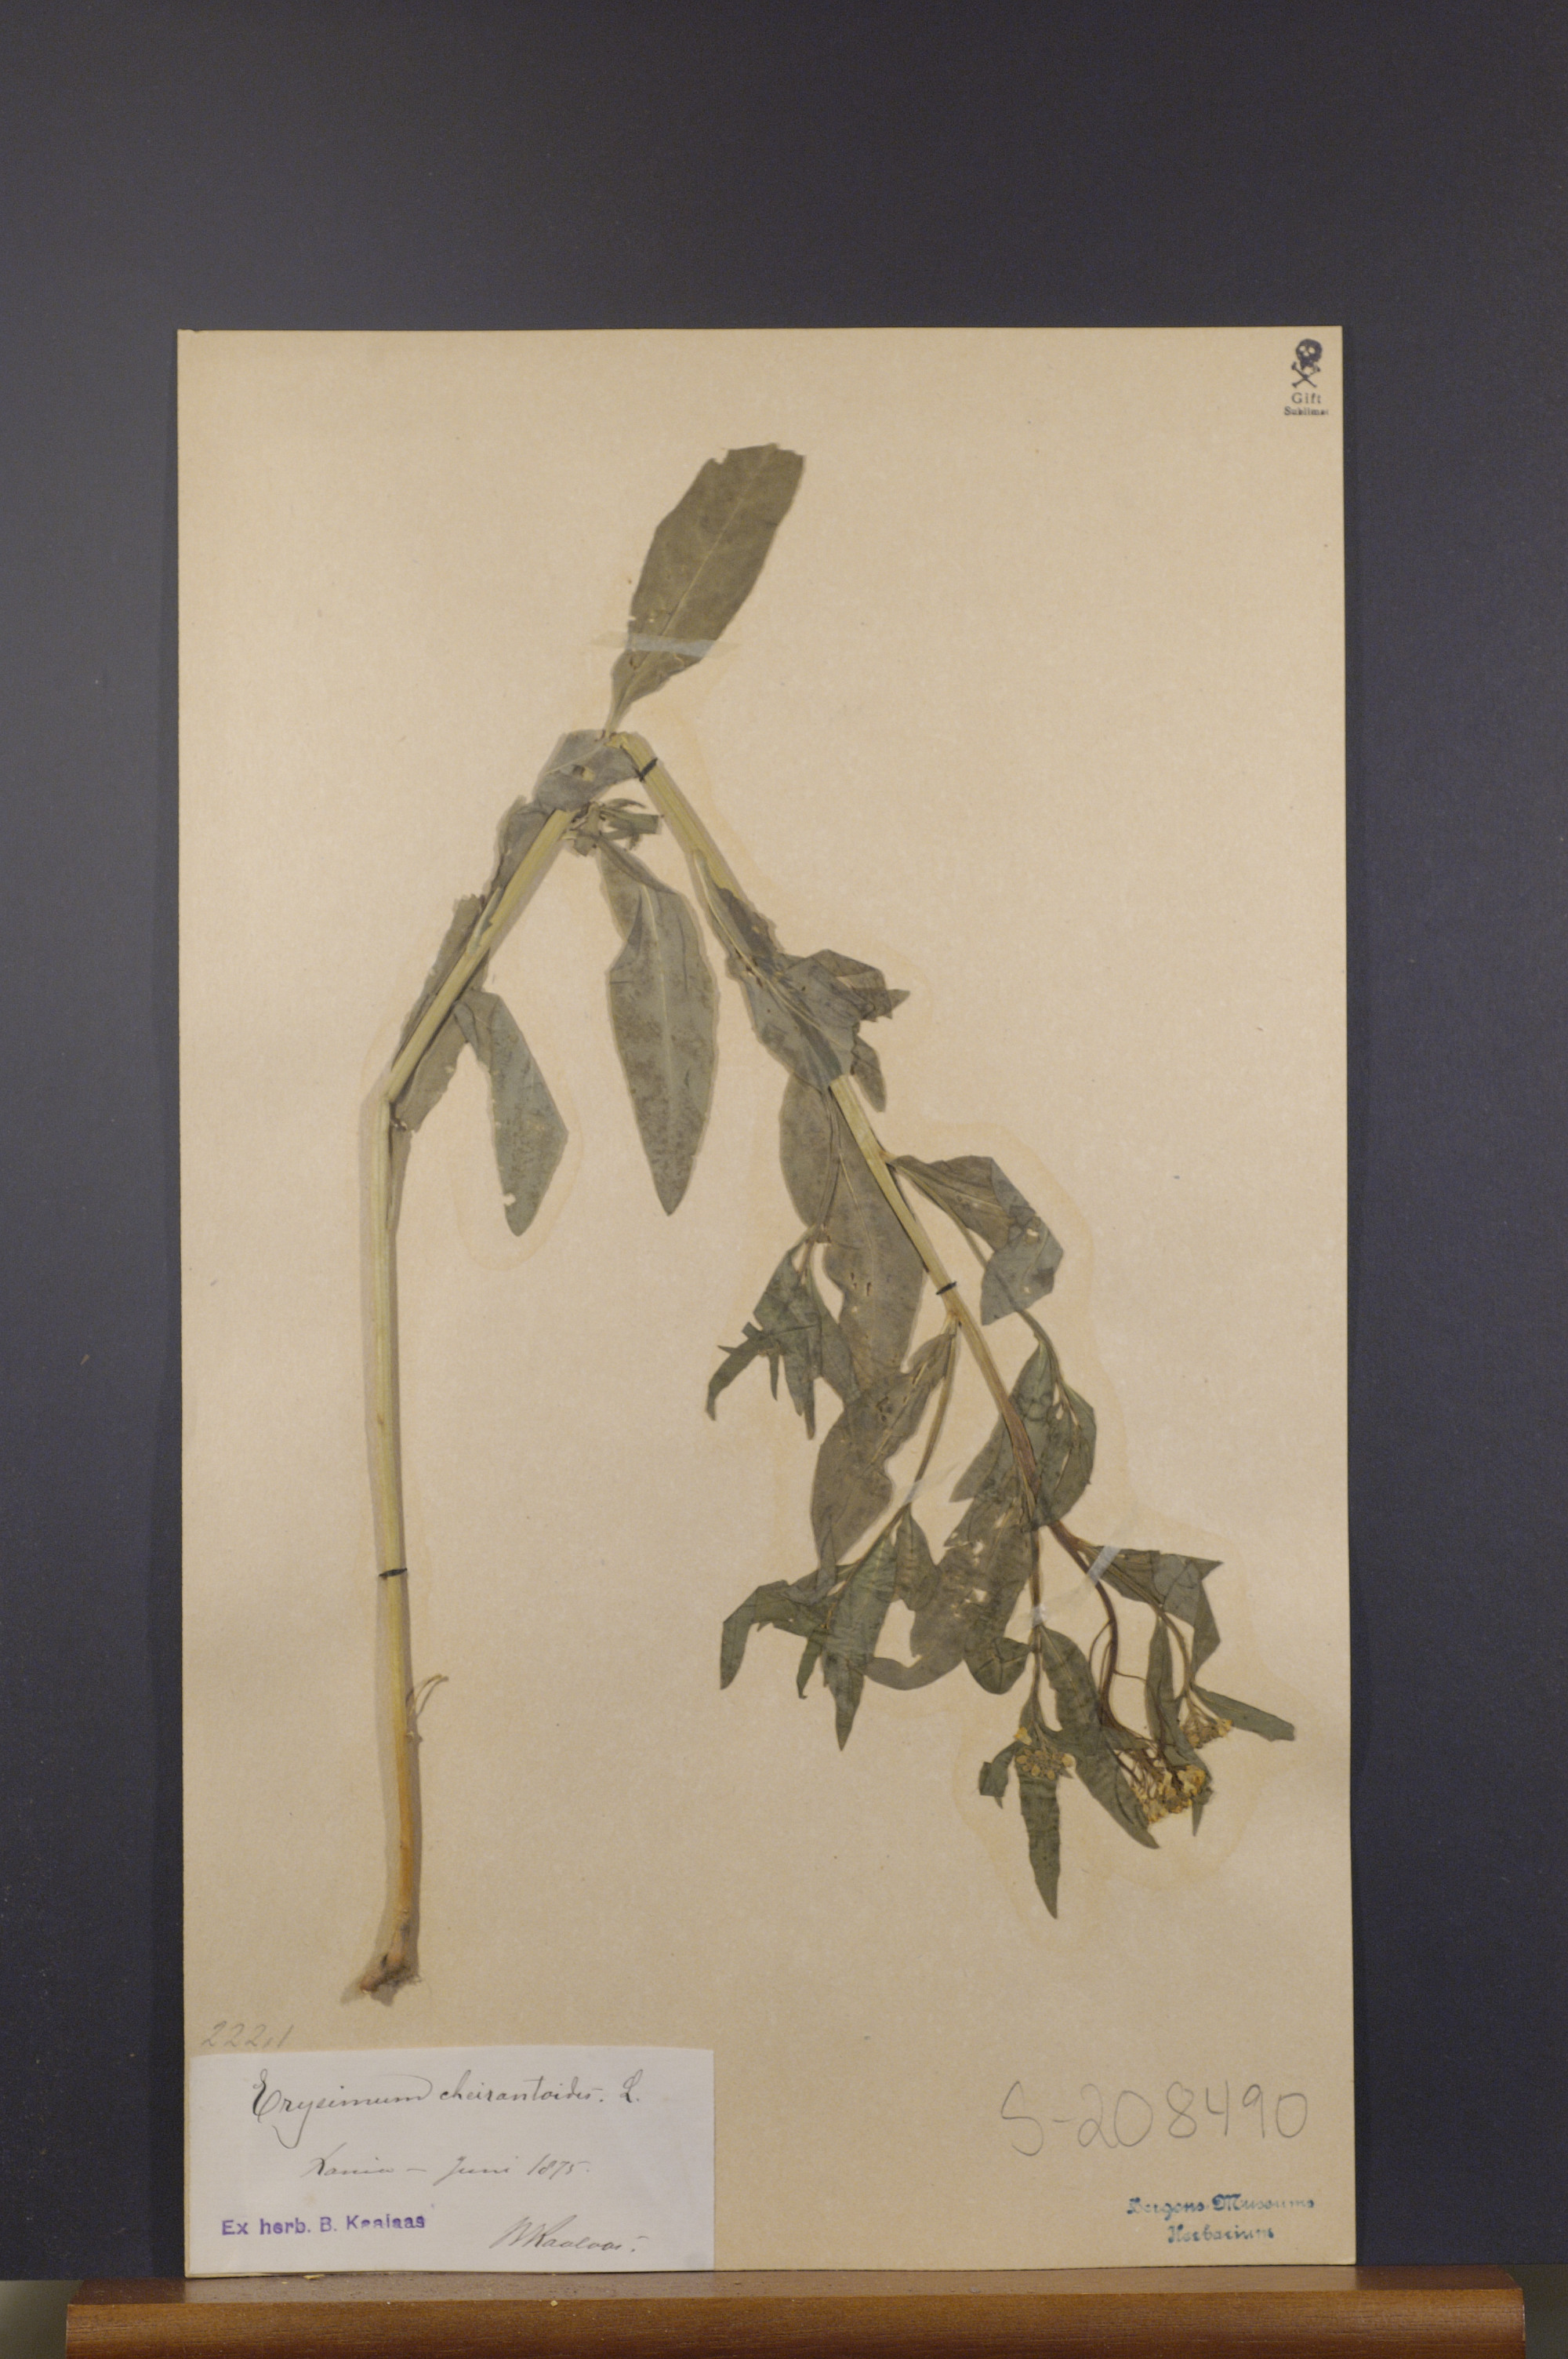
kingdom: Plantae
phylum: Tracheophyta
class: Magnoliopsida
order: Brassicales
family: Brassicaceae
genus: Erysimum
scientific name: Erysimum cheiranthoides
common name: Treacle mustard
